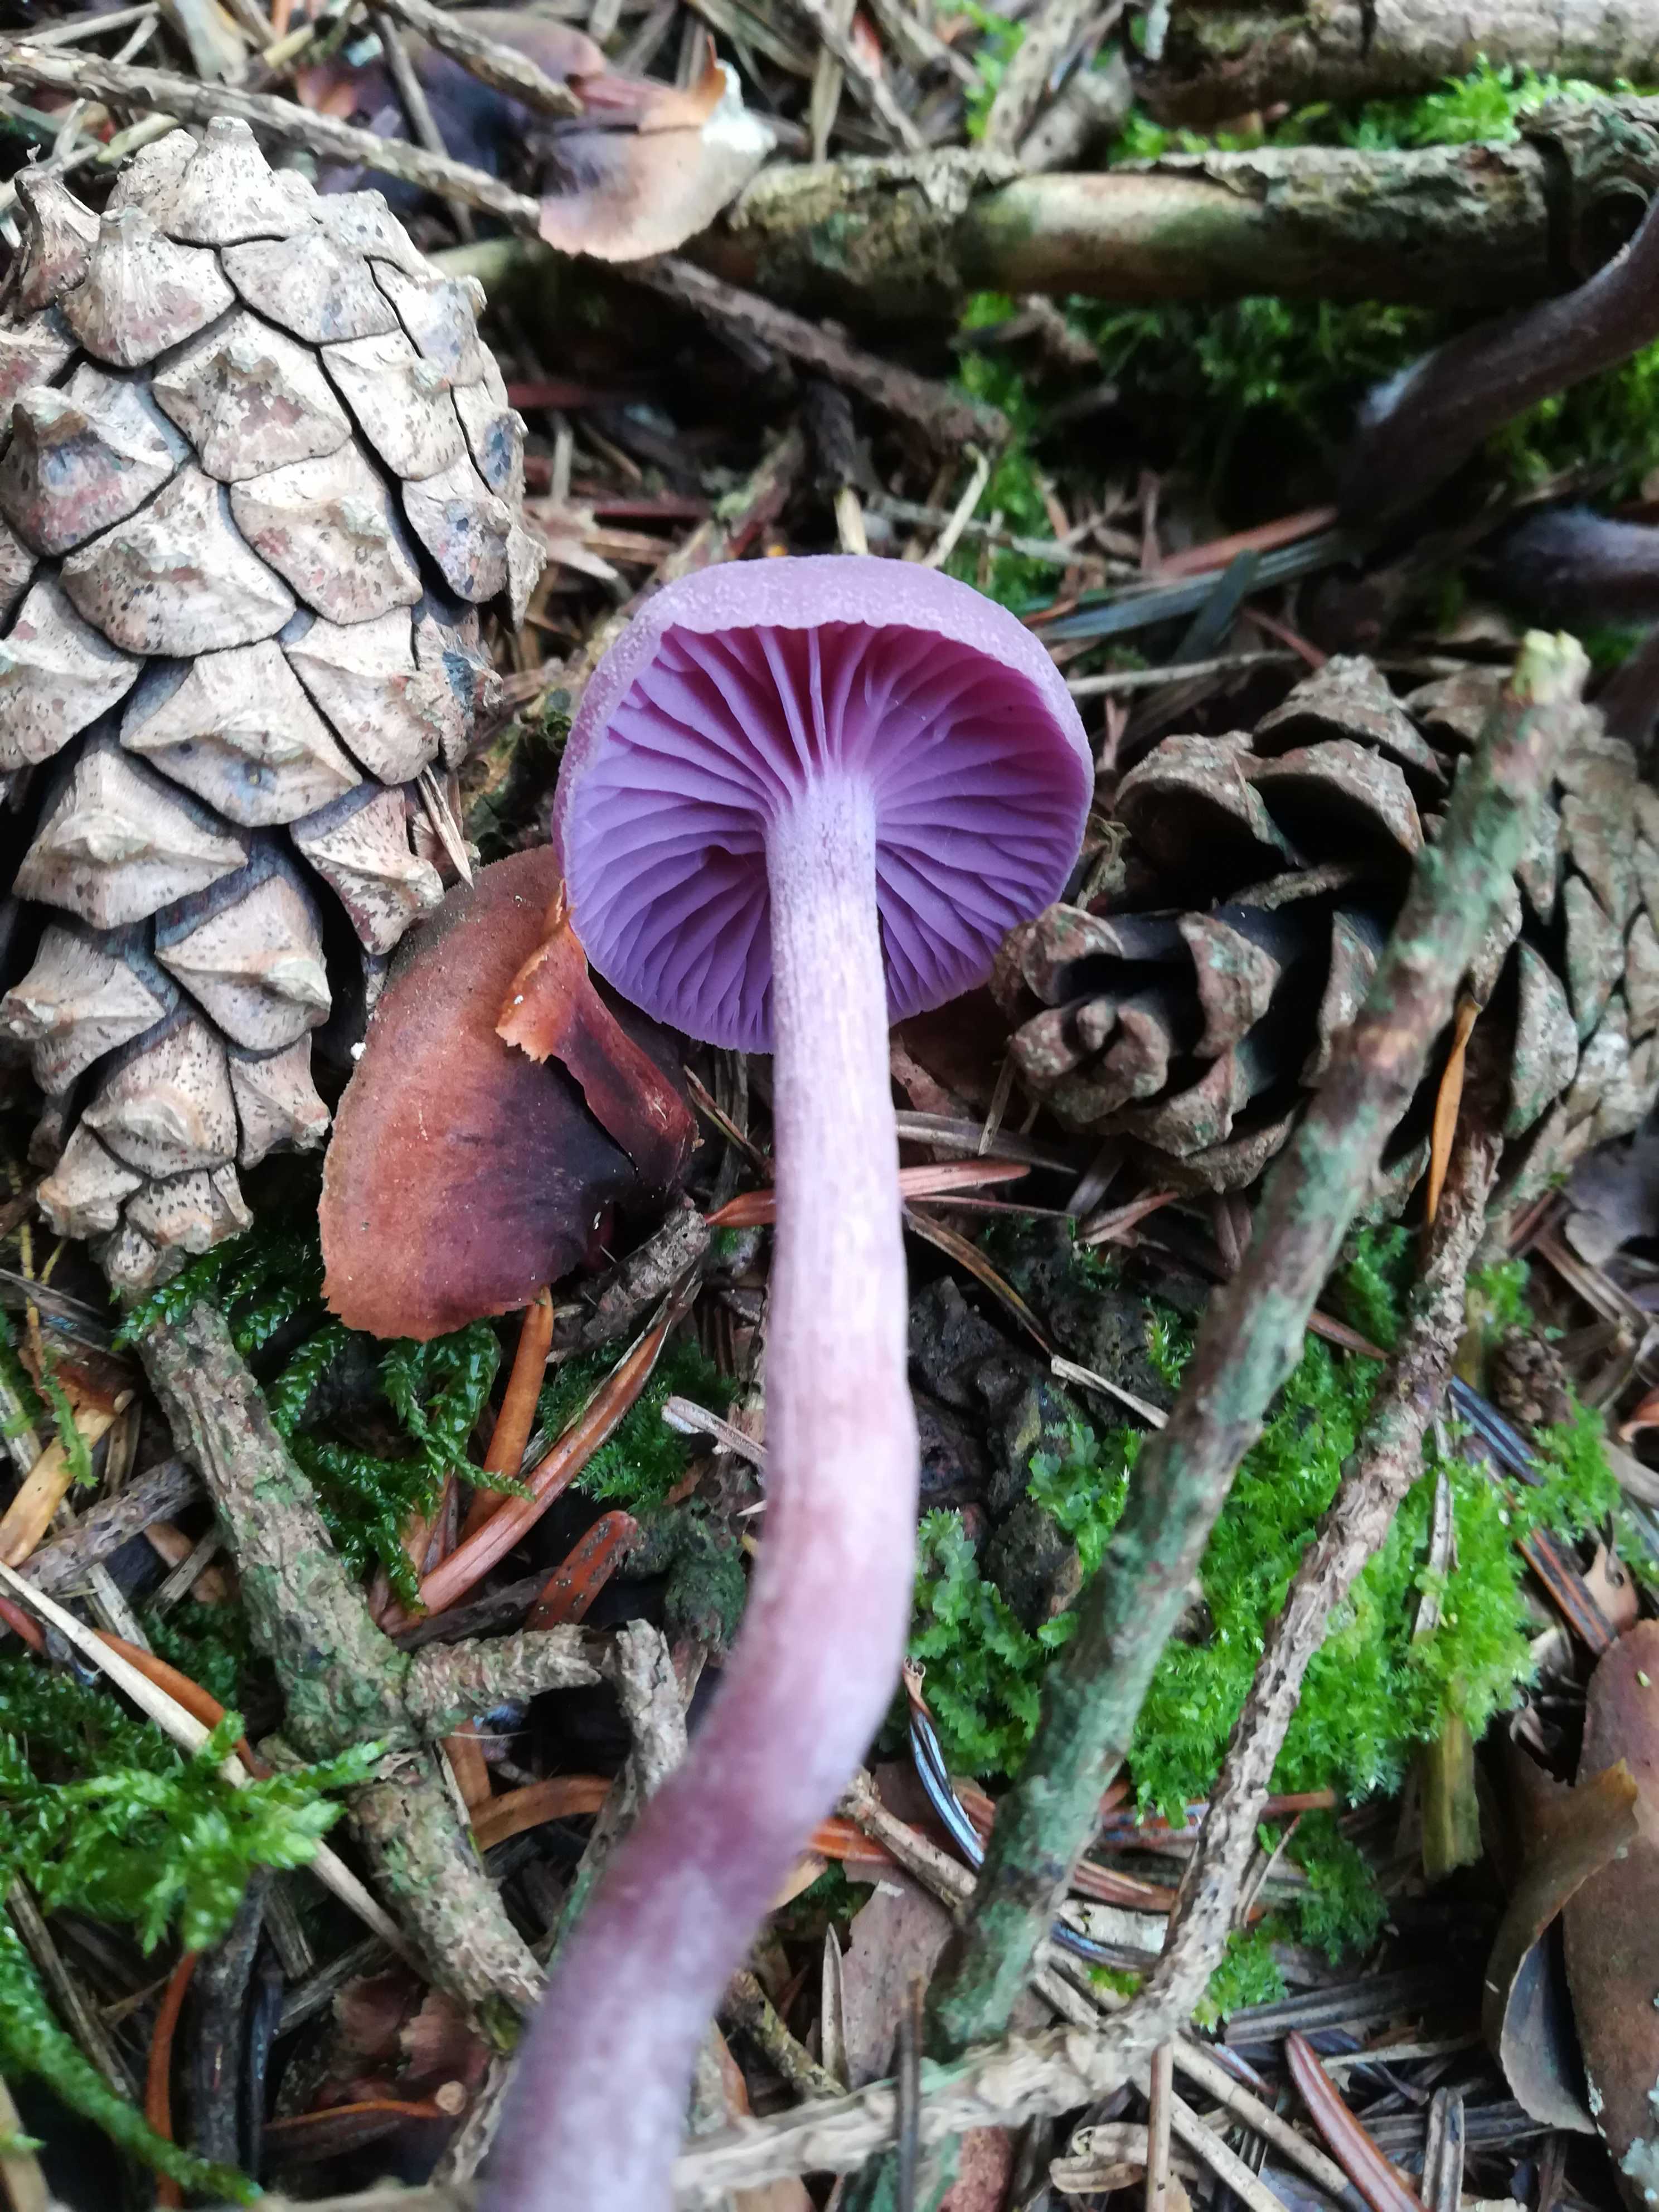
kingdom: Fungi
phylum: Basidiomycota
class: Agaricomycetes
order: Agaricales
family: Hydnangiaceae
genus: Laccaria
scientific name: Laccaria amethystina
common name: violet ametysthat
